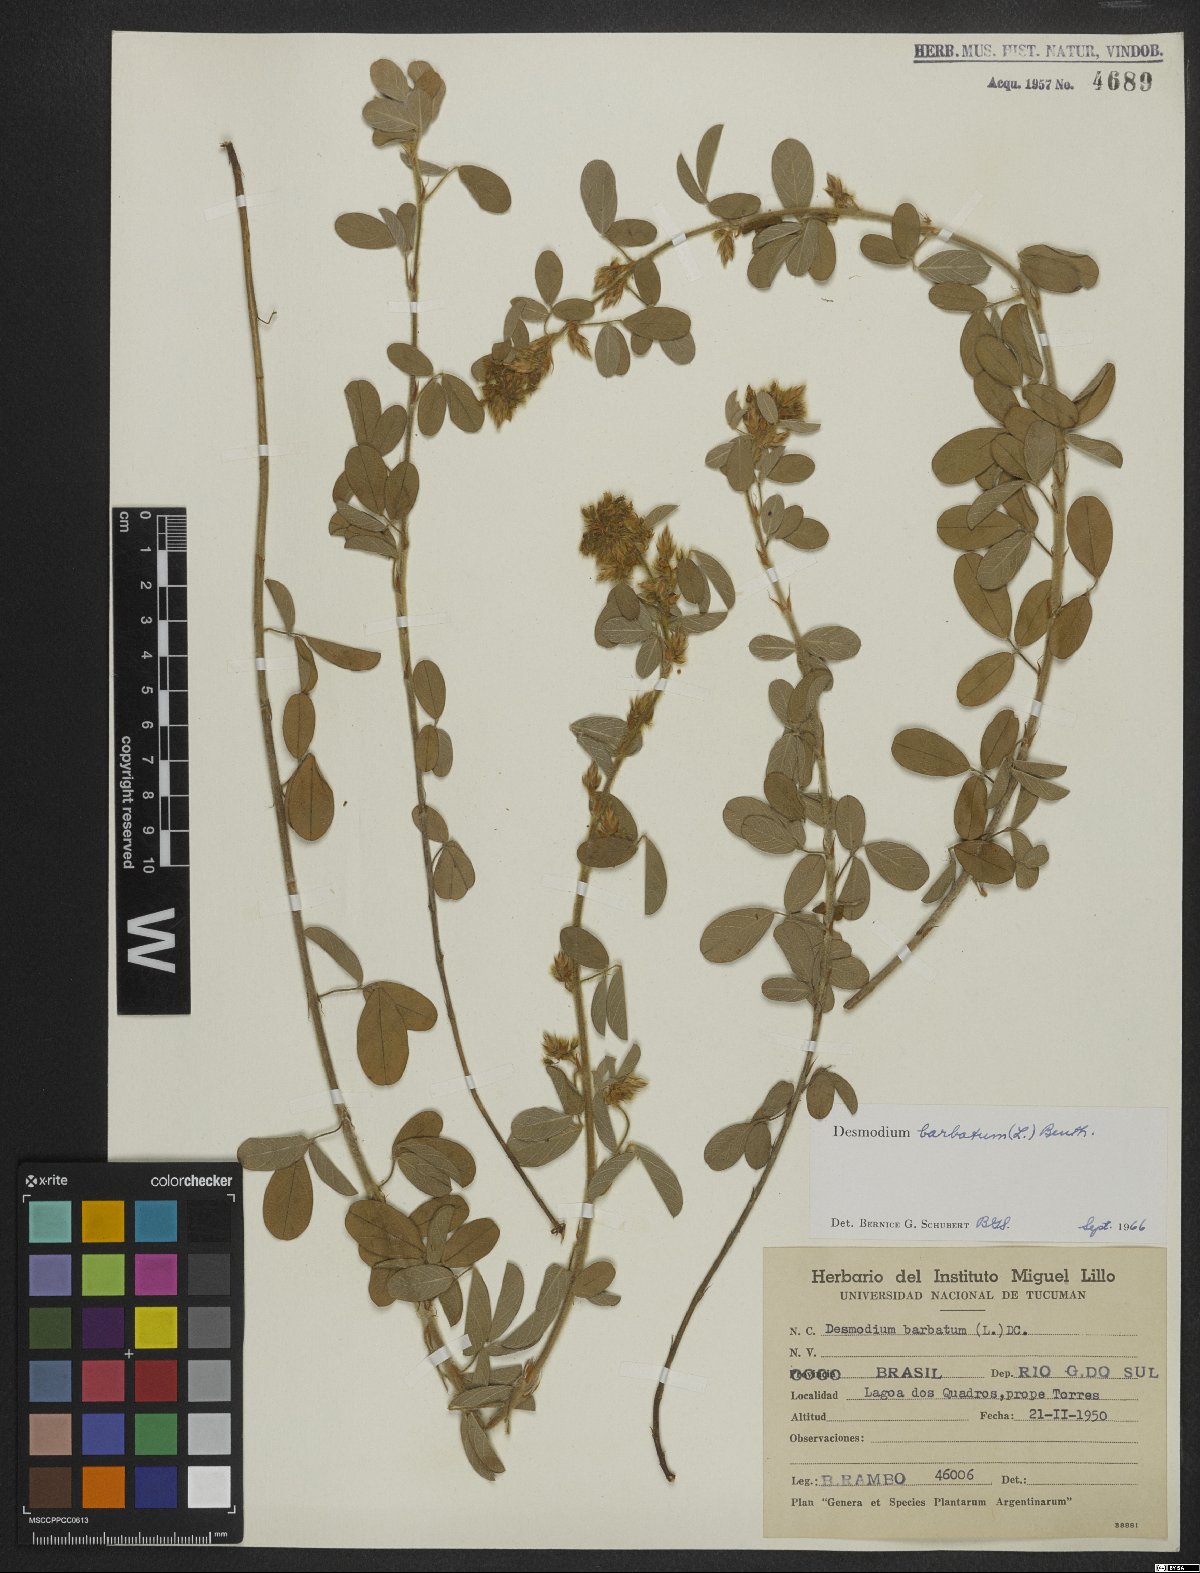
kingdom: Plantae
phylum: Tracheophyta
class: Magnoliopsida
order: Fabales
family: Fabaceae
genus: Grona
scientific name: Grona barbata
